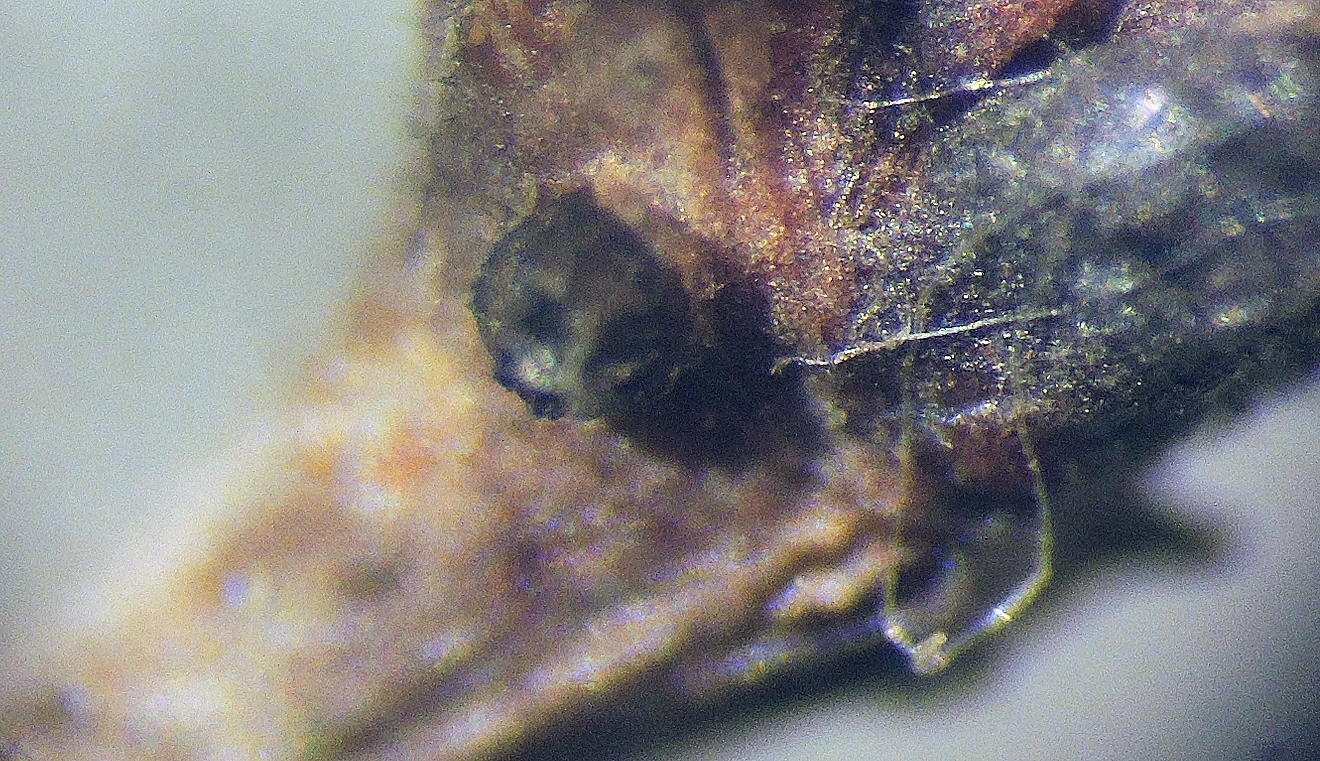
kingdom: Fungi
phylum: Ascomycota
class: Leotiomycetes
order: Helotiales
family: Cenangiaceae
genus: Crumenula
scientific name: Crumenula urceoliformis
